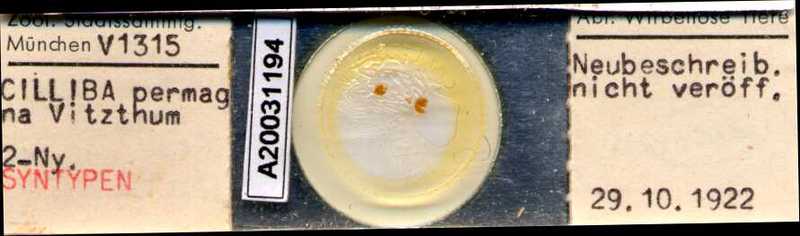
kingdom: Animalia
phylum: Arthropoda
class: Arachnida
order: Mesostigmata
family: Uropodidae
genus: Cilliba
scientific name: Cilliba
